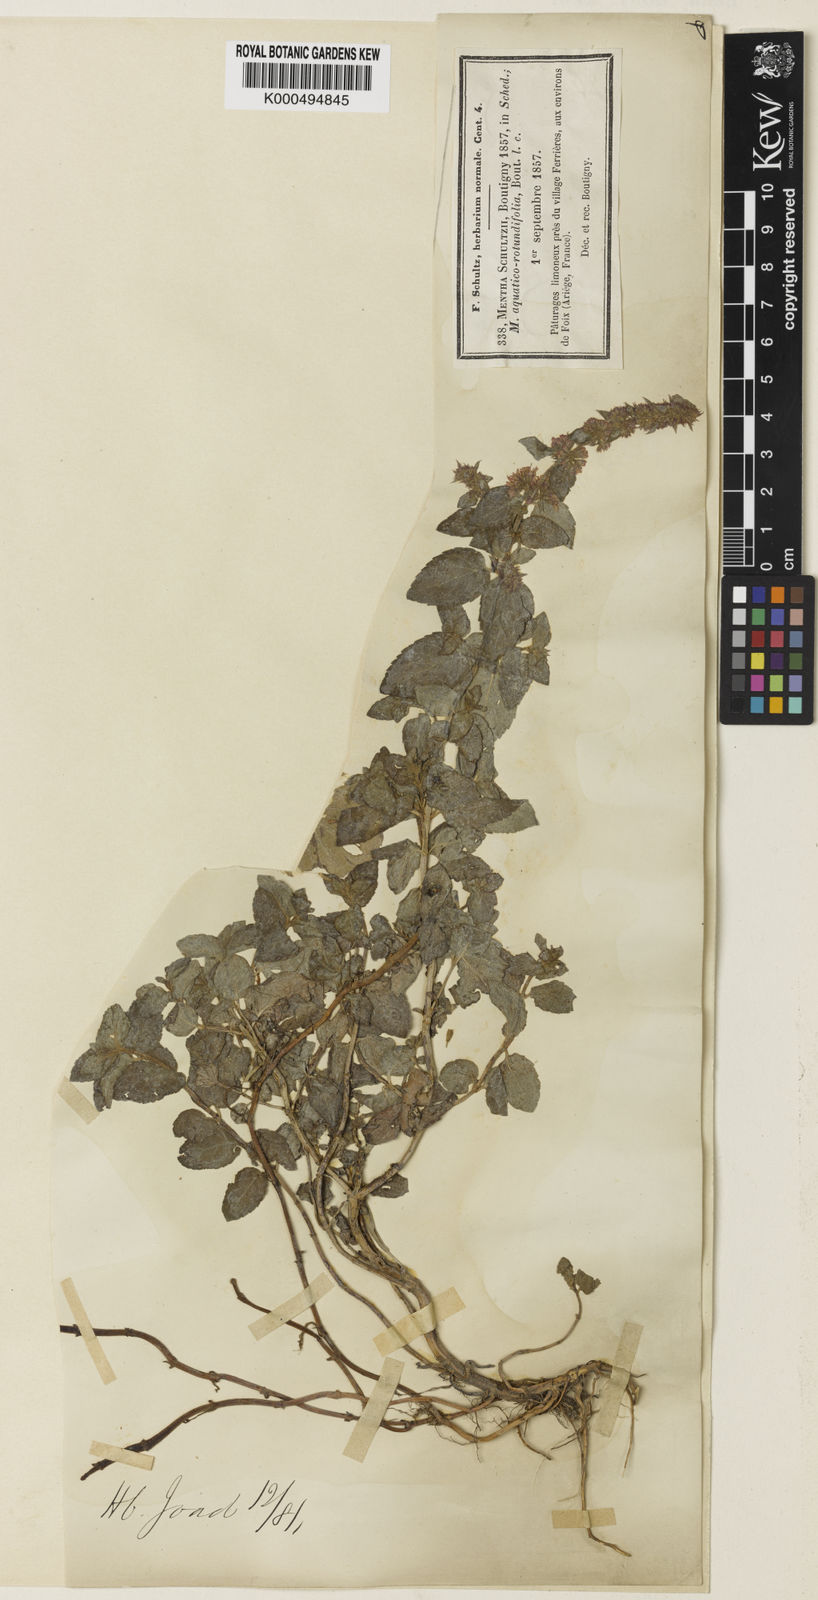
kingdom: Plantae
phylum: Tracheophyta
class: Magnoliopsida
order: Lamiales
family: Lamiaceae
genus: Mentha
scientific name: Mentha suavis
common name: Sweet mint
